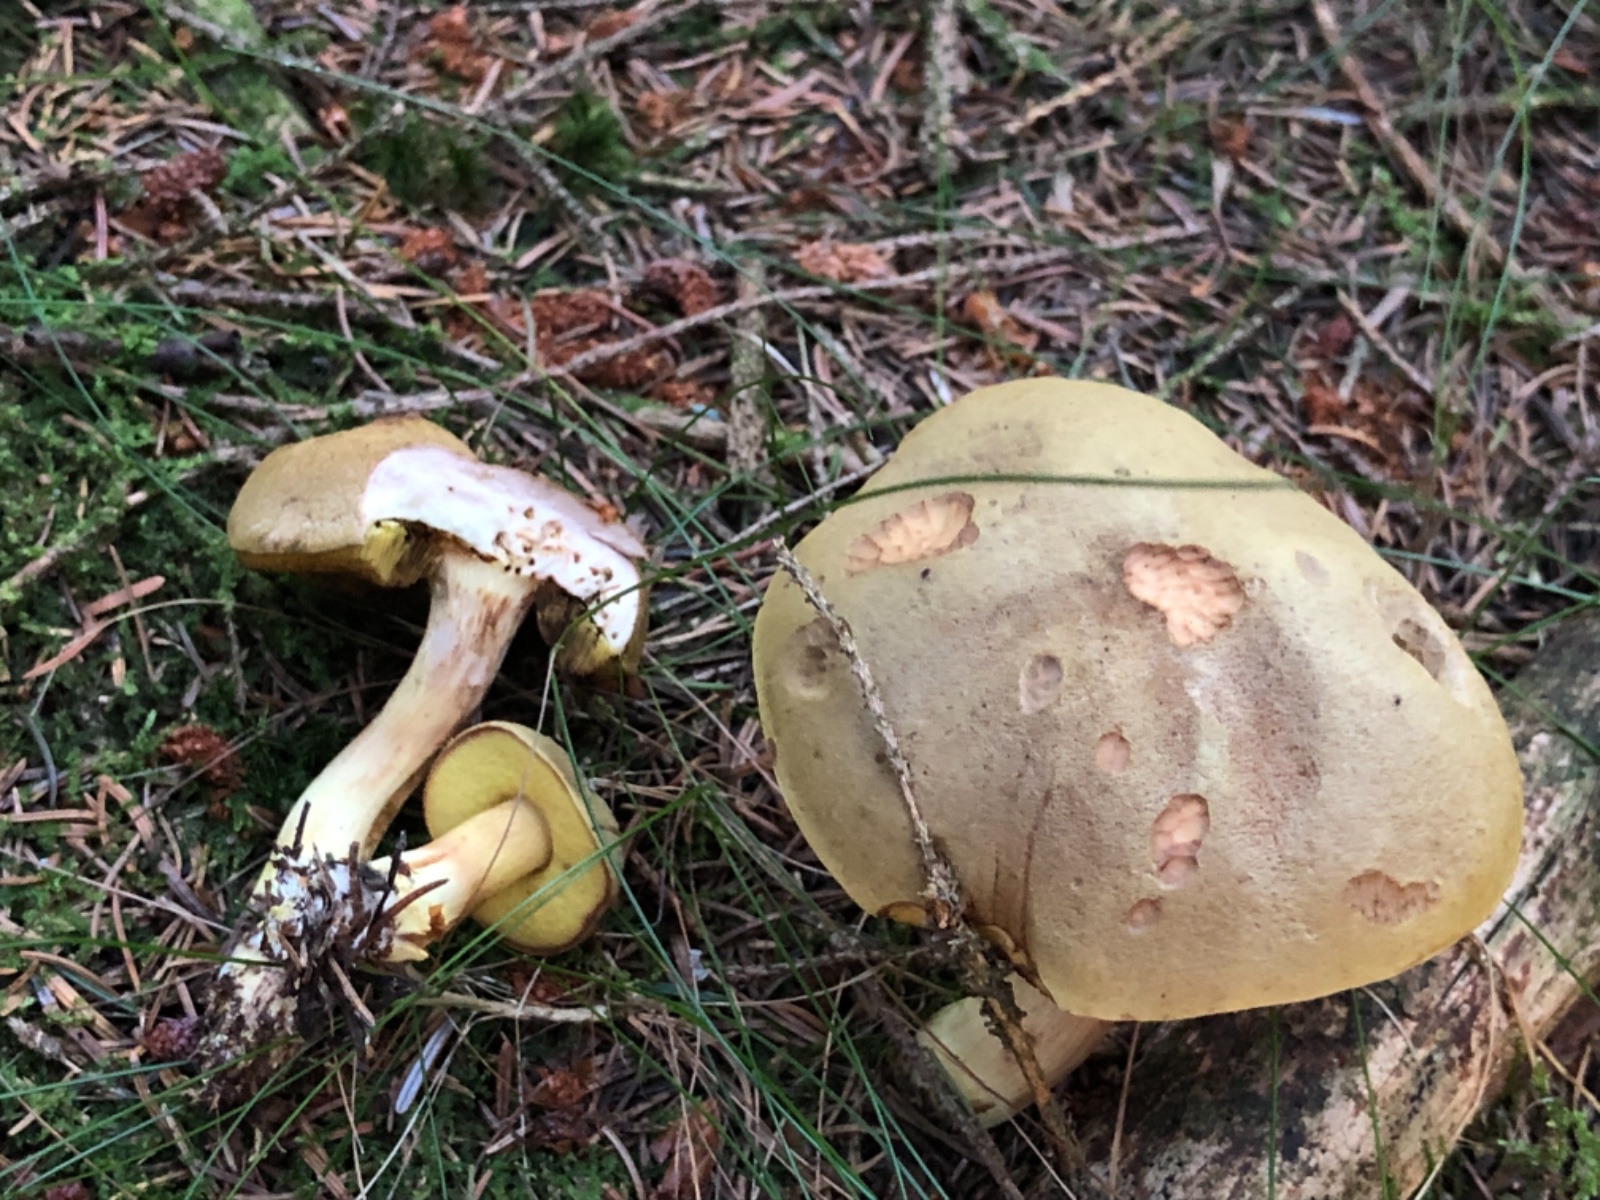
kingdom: Fungi
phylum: Basidiomycota
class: Agaricomycetes
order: Boletales
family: Boletaceae
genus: Xerocomus
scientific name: Xerocomus ferrugineus
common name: vaskeskinds-rørhat
